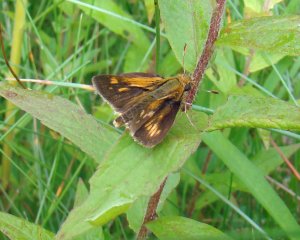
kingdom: Animalia
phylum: Arthropoda
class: Insecta
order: Lepidoptera
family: Hesperiidae
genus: Polites
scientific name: Polites coras
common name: Peck's Skipper
